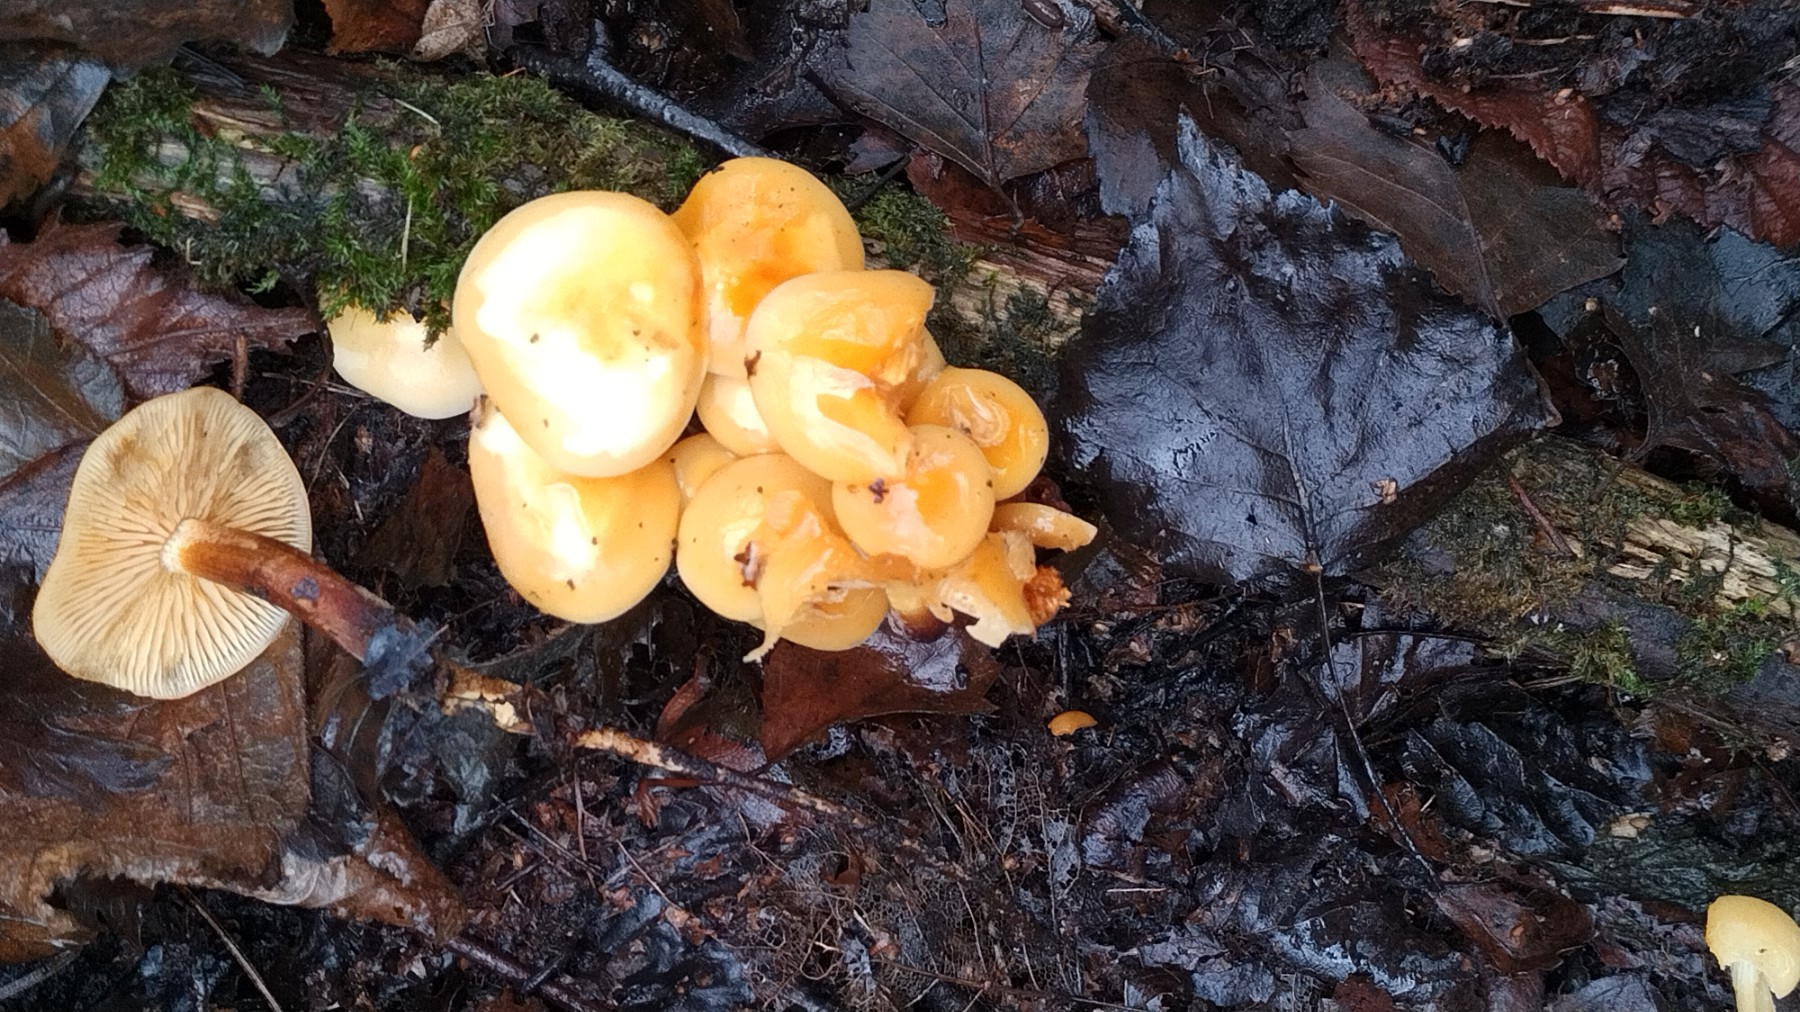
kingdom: Fungi
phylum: Basidiomycota
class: Agaricomycetes
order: Agaricales
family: Physalacriaceae
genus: Flammulina
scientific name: Flammulina velutipes
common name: gul fløjlsfod
